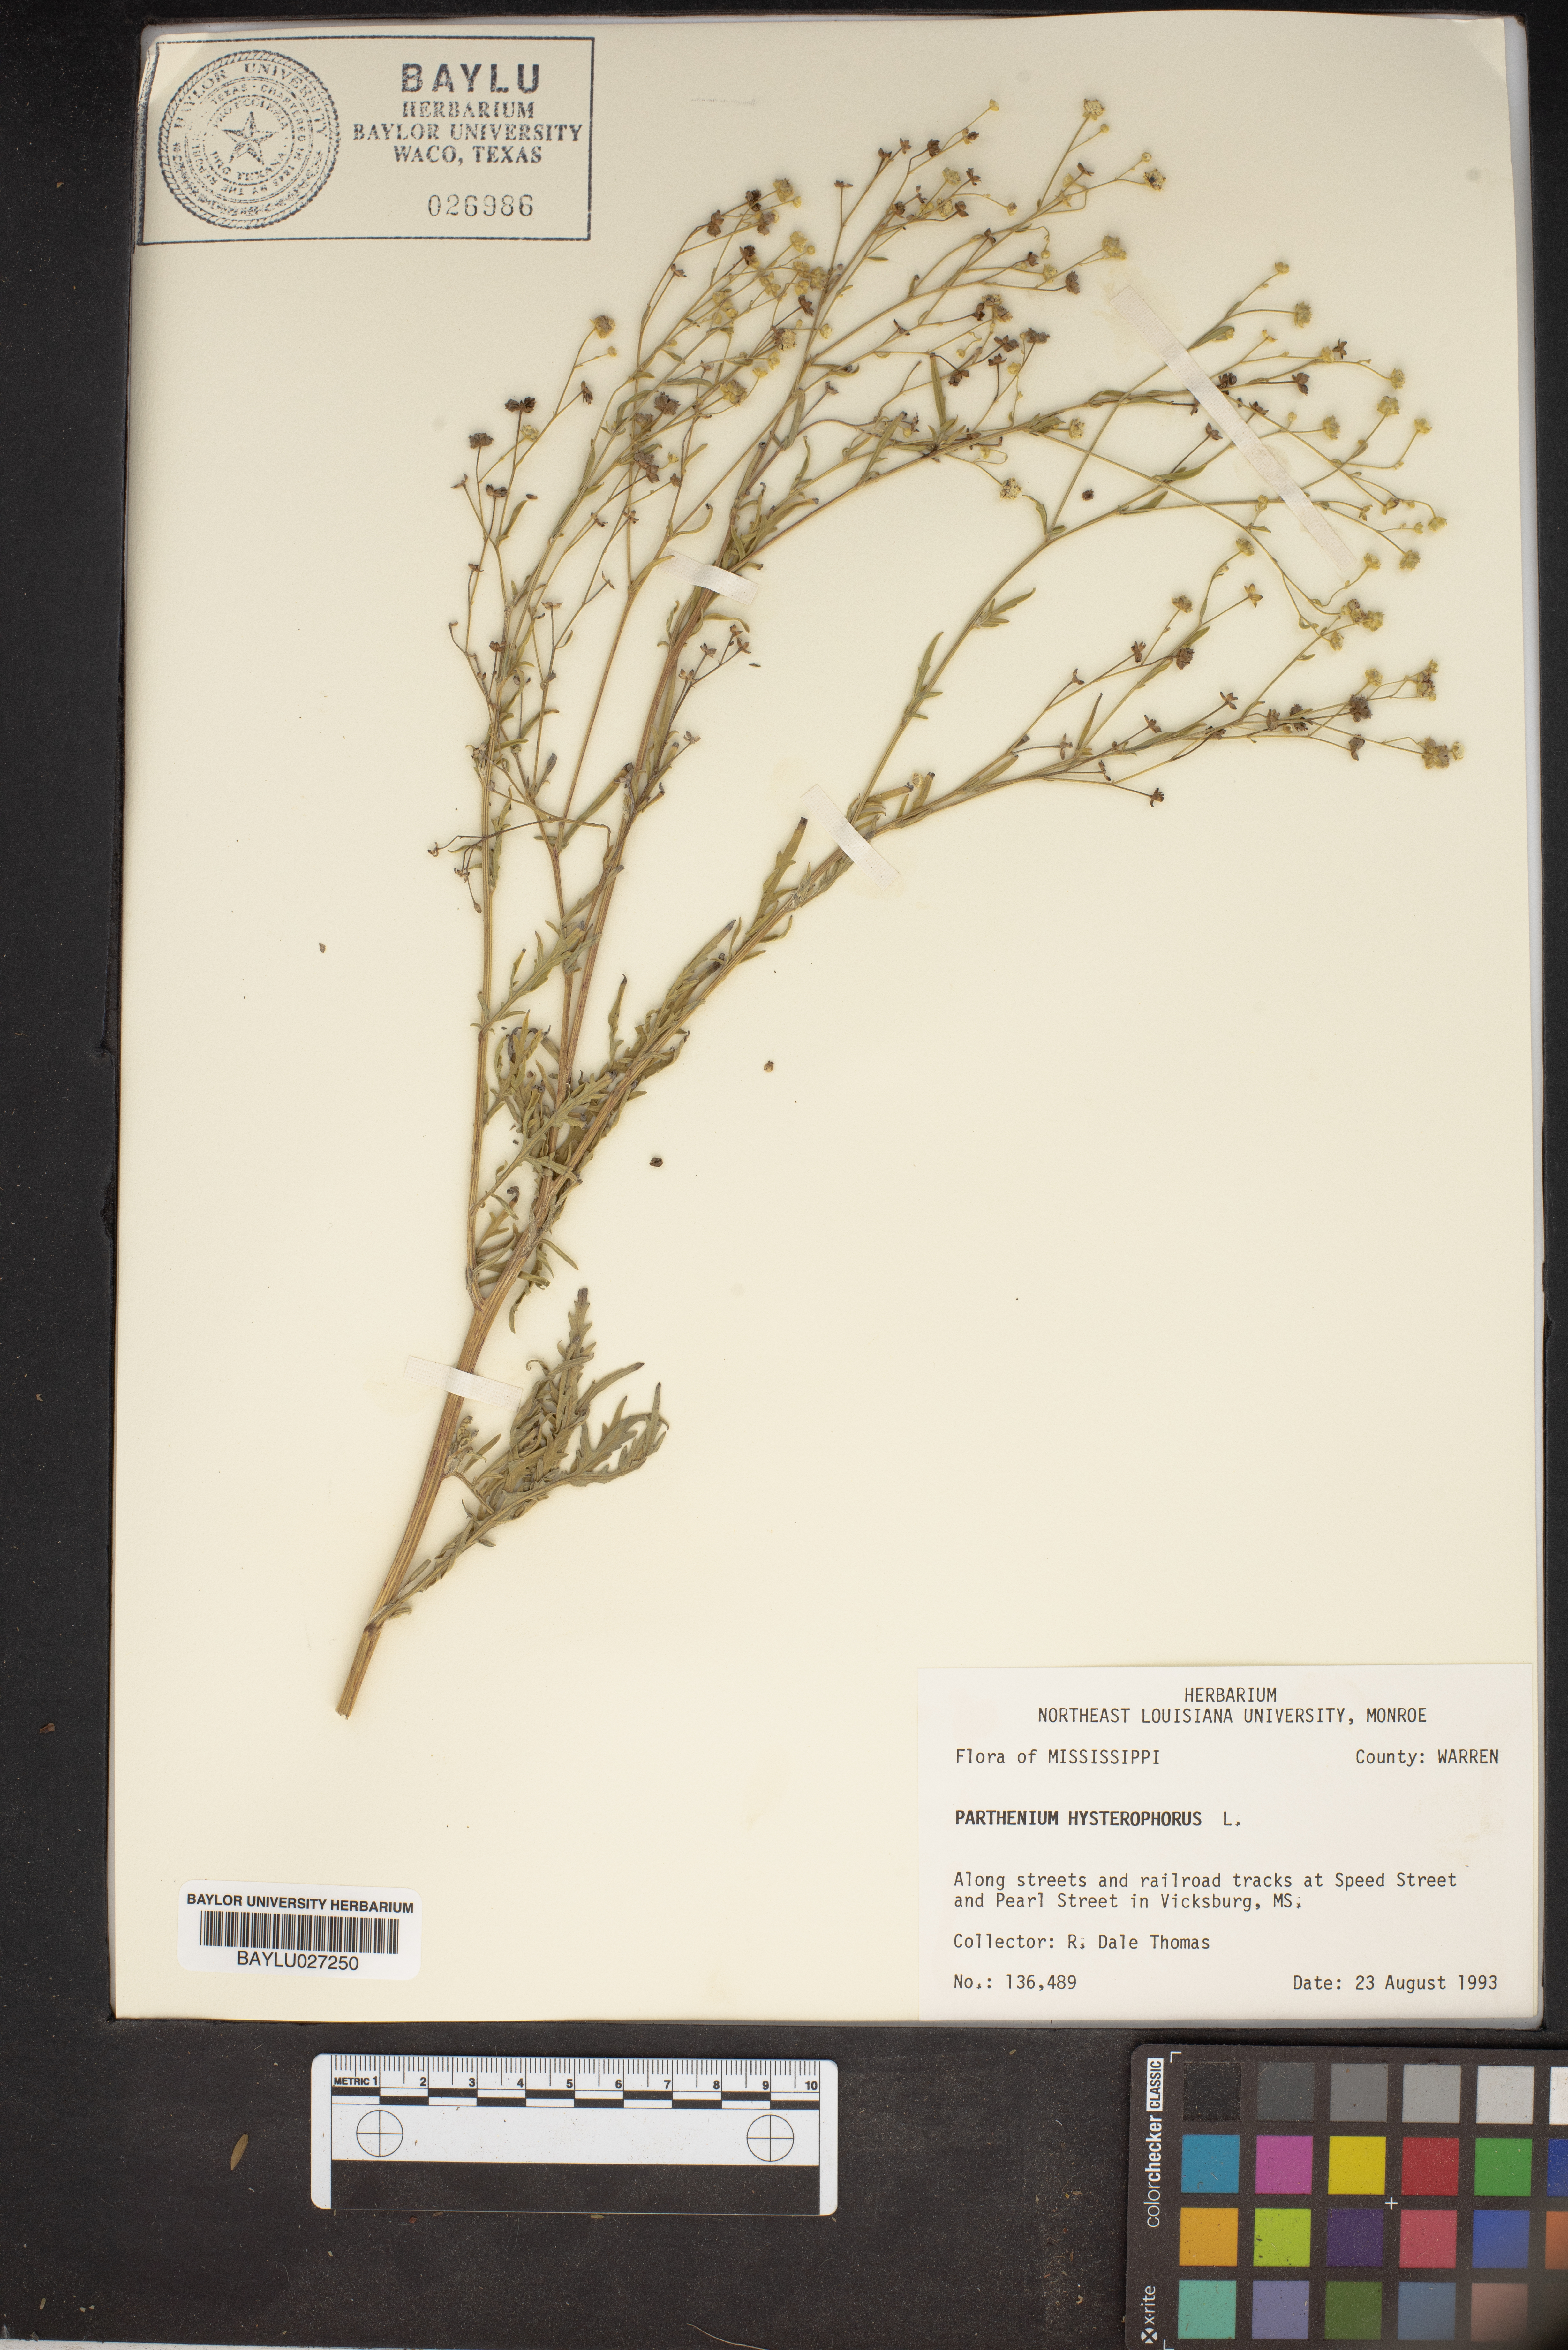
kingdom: Plantae
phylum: Tracheophyta
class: Magnoliopsida
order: Asterales
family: Asteraceae
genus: Parthenium
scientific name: Parthenium hysterophorus
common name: Santa maria feverfew
